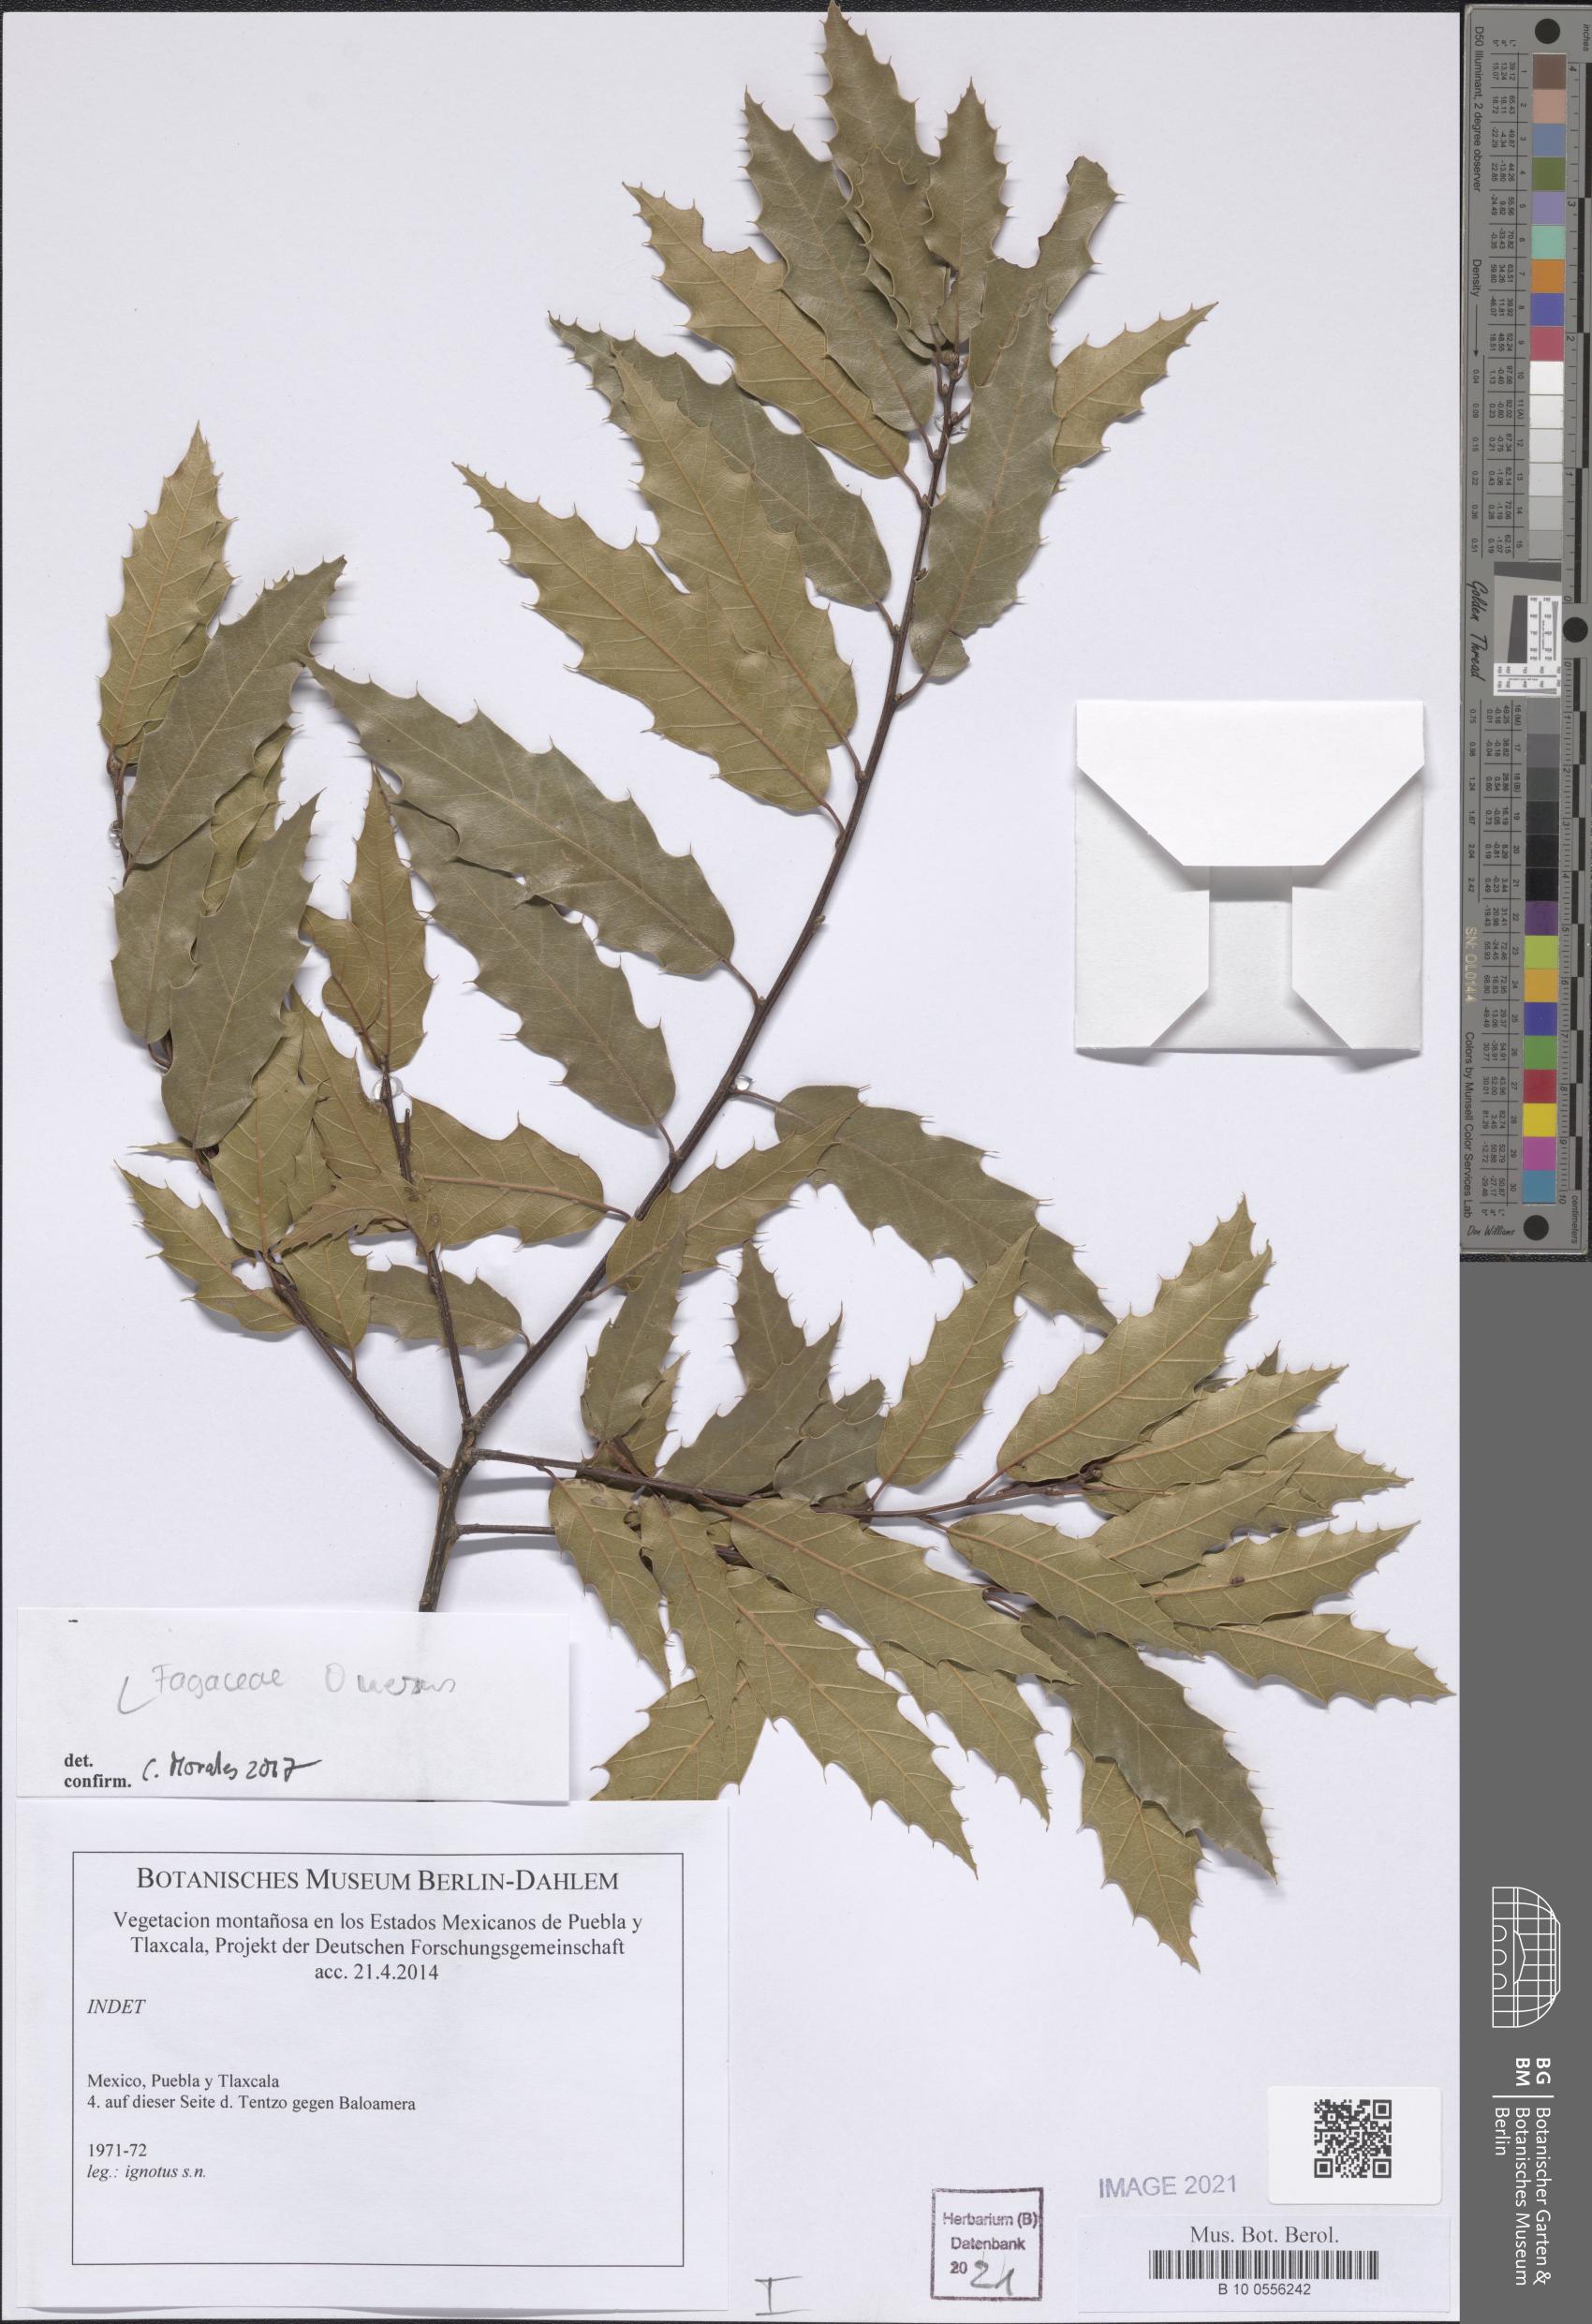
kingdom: Plantae
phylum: Tracheophyta
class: Magnoliopsida
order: Fagales
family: Fagaceae
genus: Quercus
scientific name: Quercus
